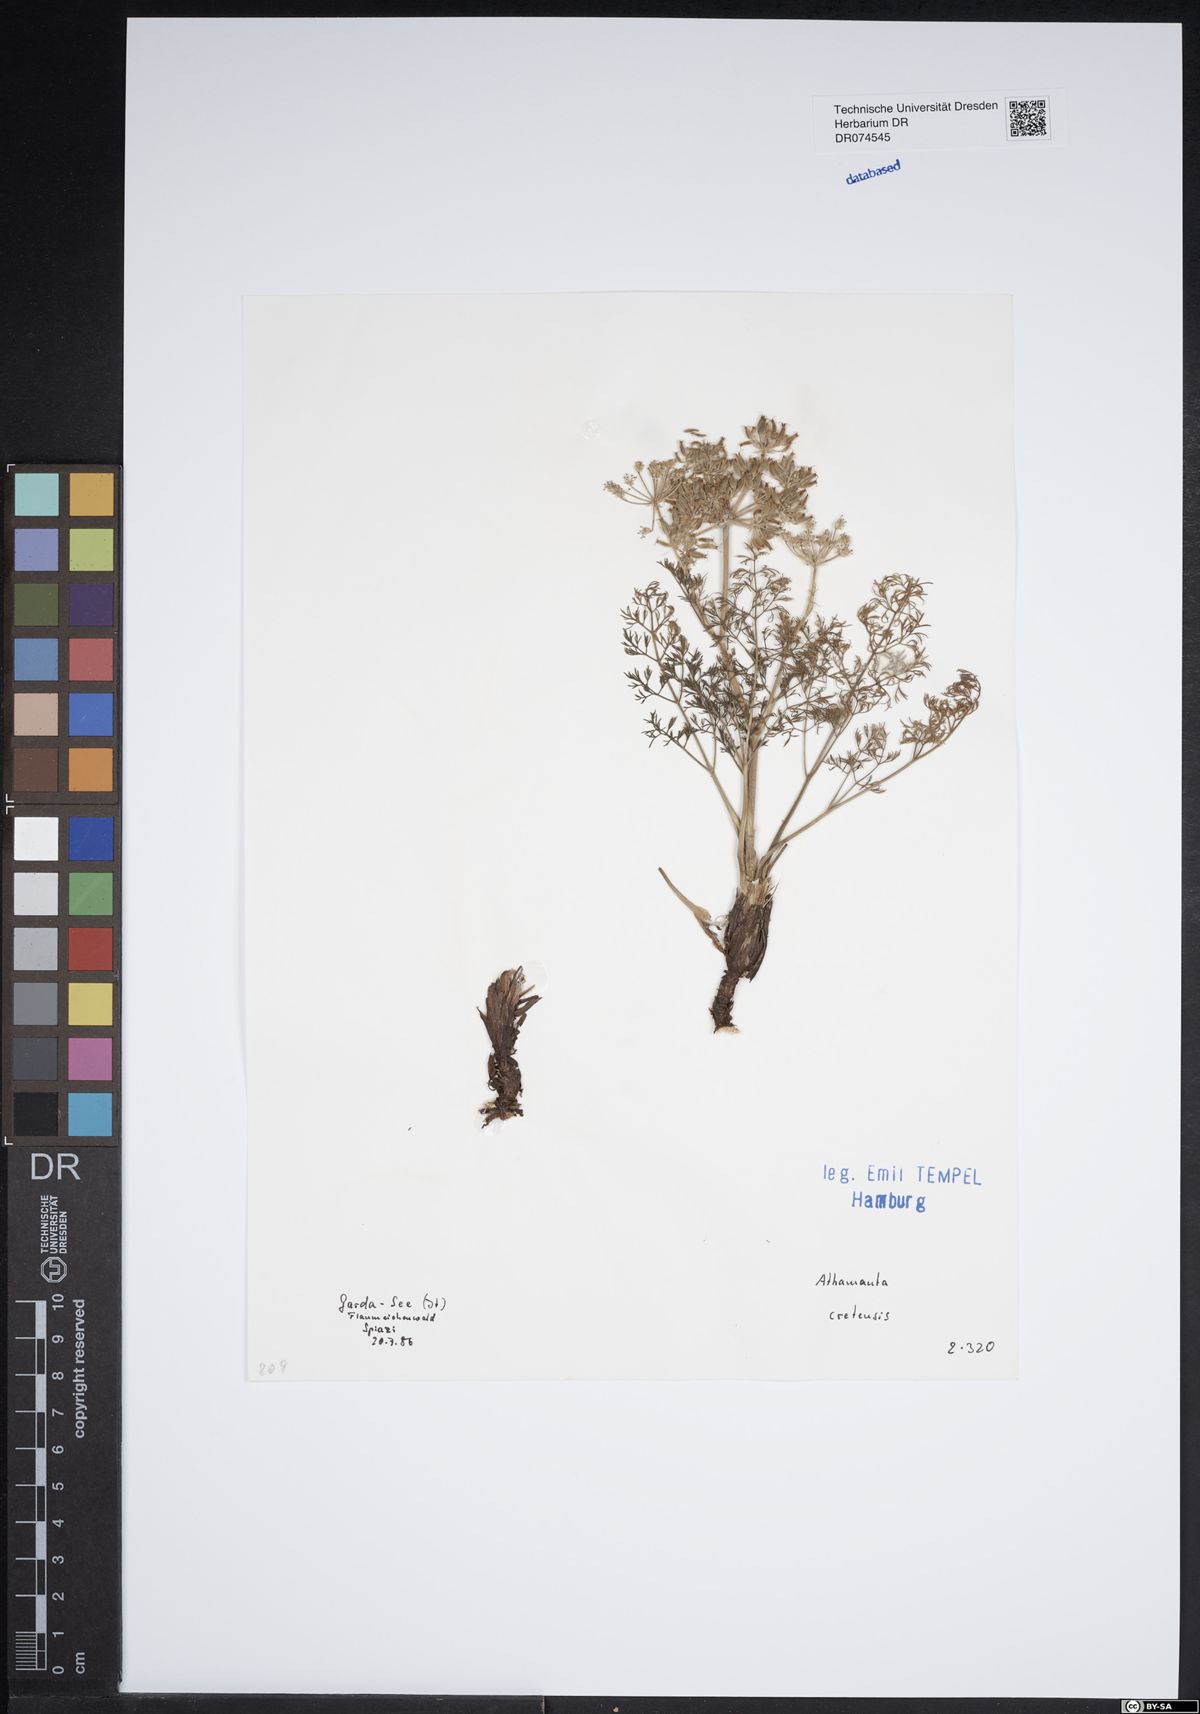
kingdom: Plantae
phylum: Tracheophyta
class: Magnoliopsida
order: Apiales
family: Apiaceae
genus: Athamanta
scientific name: Athamanta cretensis
